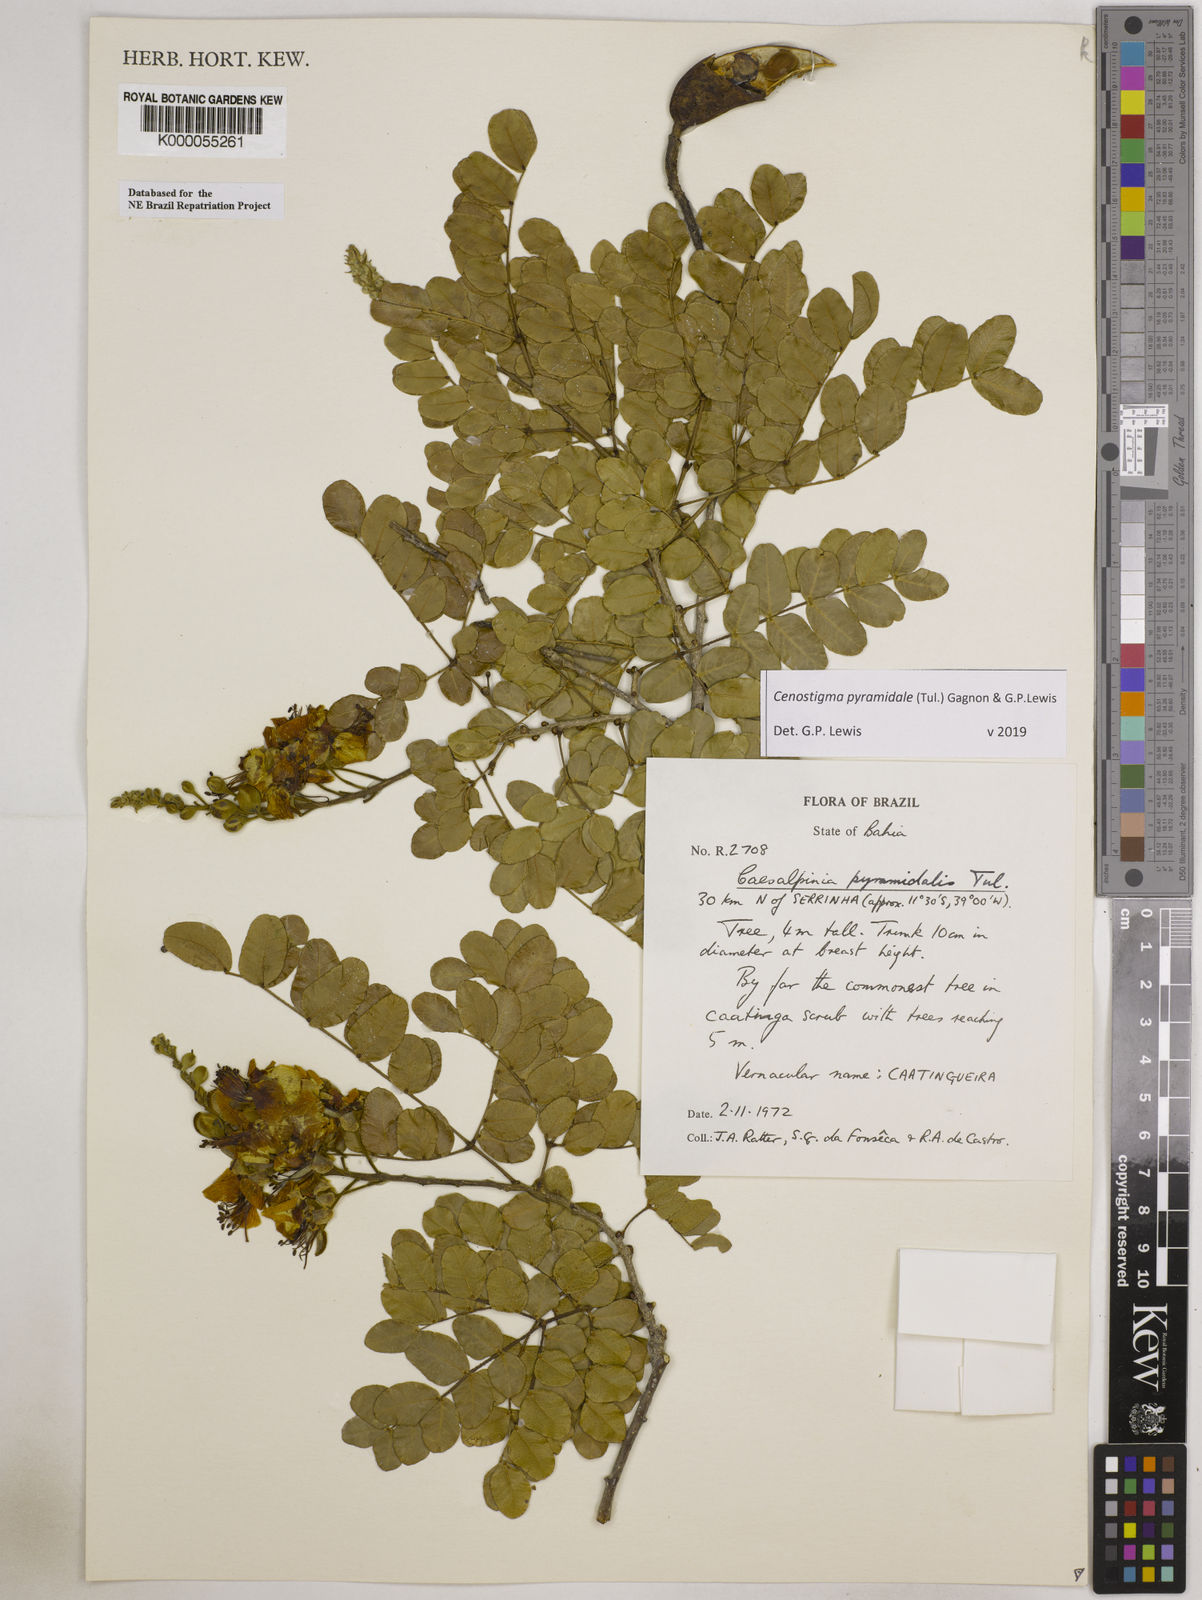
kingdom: Plantae
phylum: Tracheophyta
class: Magnoliopsida
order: Fabales
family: Fabaceae
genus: Cenostigma
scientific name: Cenostigma pyramidale
